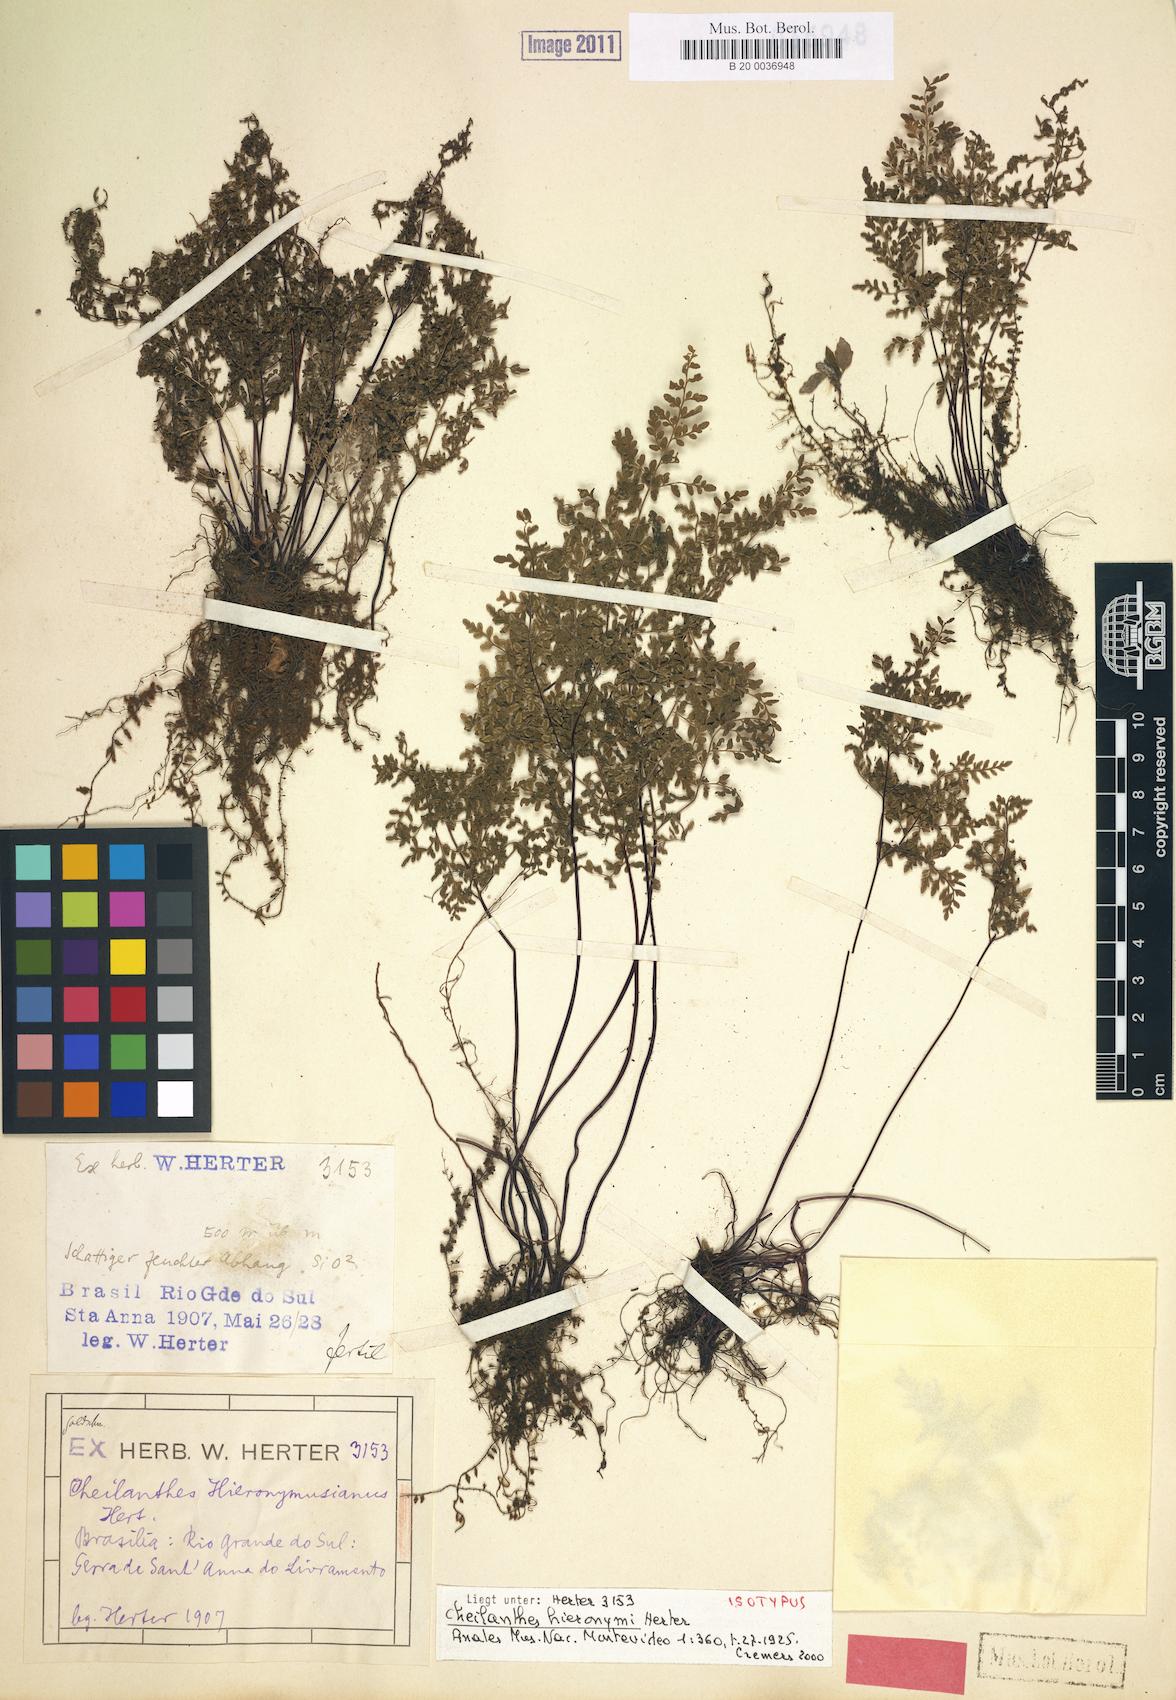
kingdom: Plantae
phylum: Tracheophyta
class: Polypodiopsida
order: Polypodiales
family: Pteridaceae
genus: Cheilanthes
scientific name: Cheilanthes hieronymi
